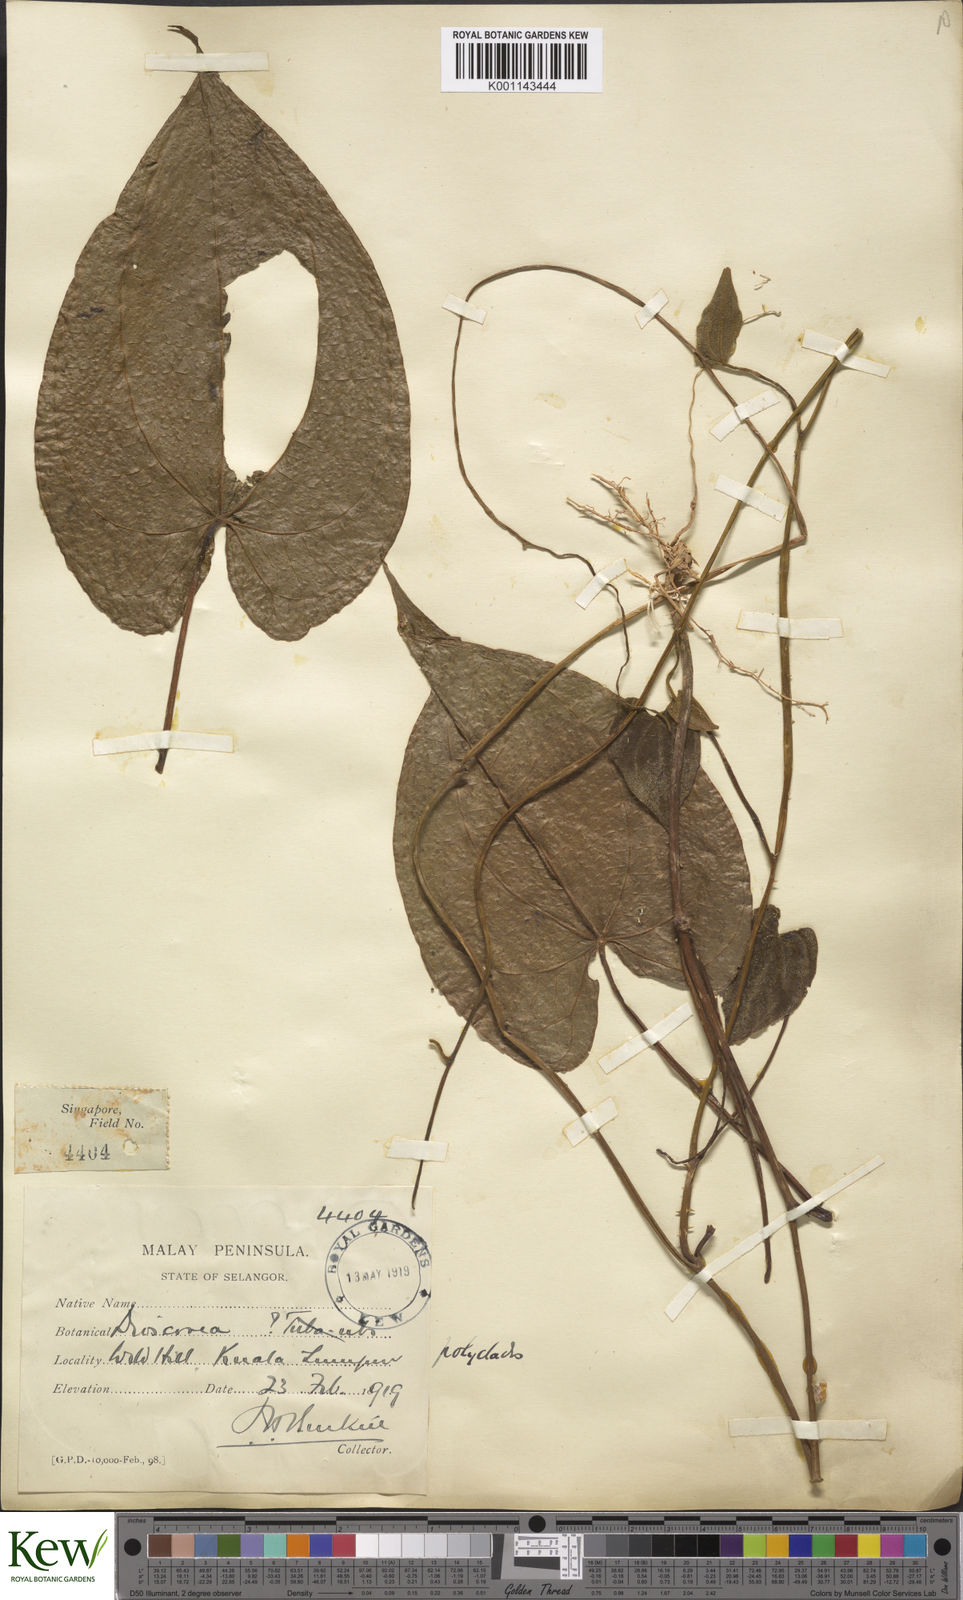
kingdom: Plantae
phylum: Tracheophyta
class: Liliopsida
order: Dioscoreales
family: Dioscoreaceae
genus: Dioscorea
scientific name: Dioscorea polyclados
